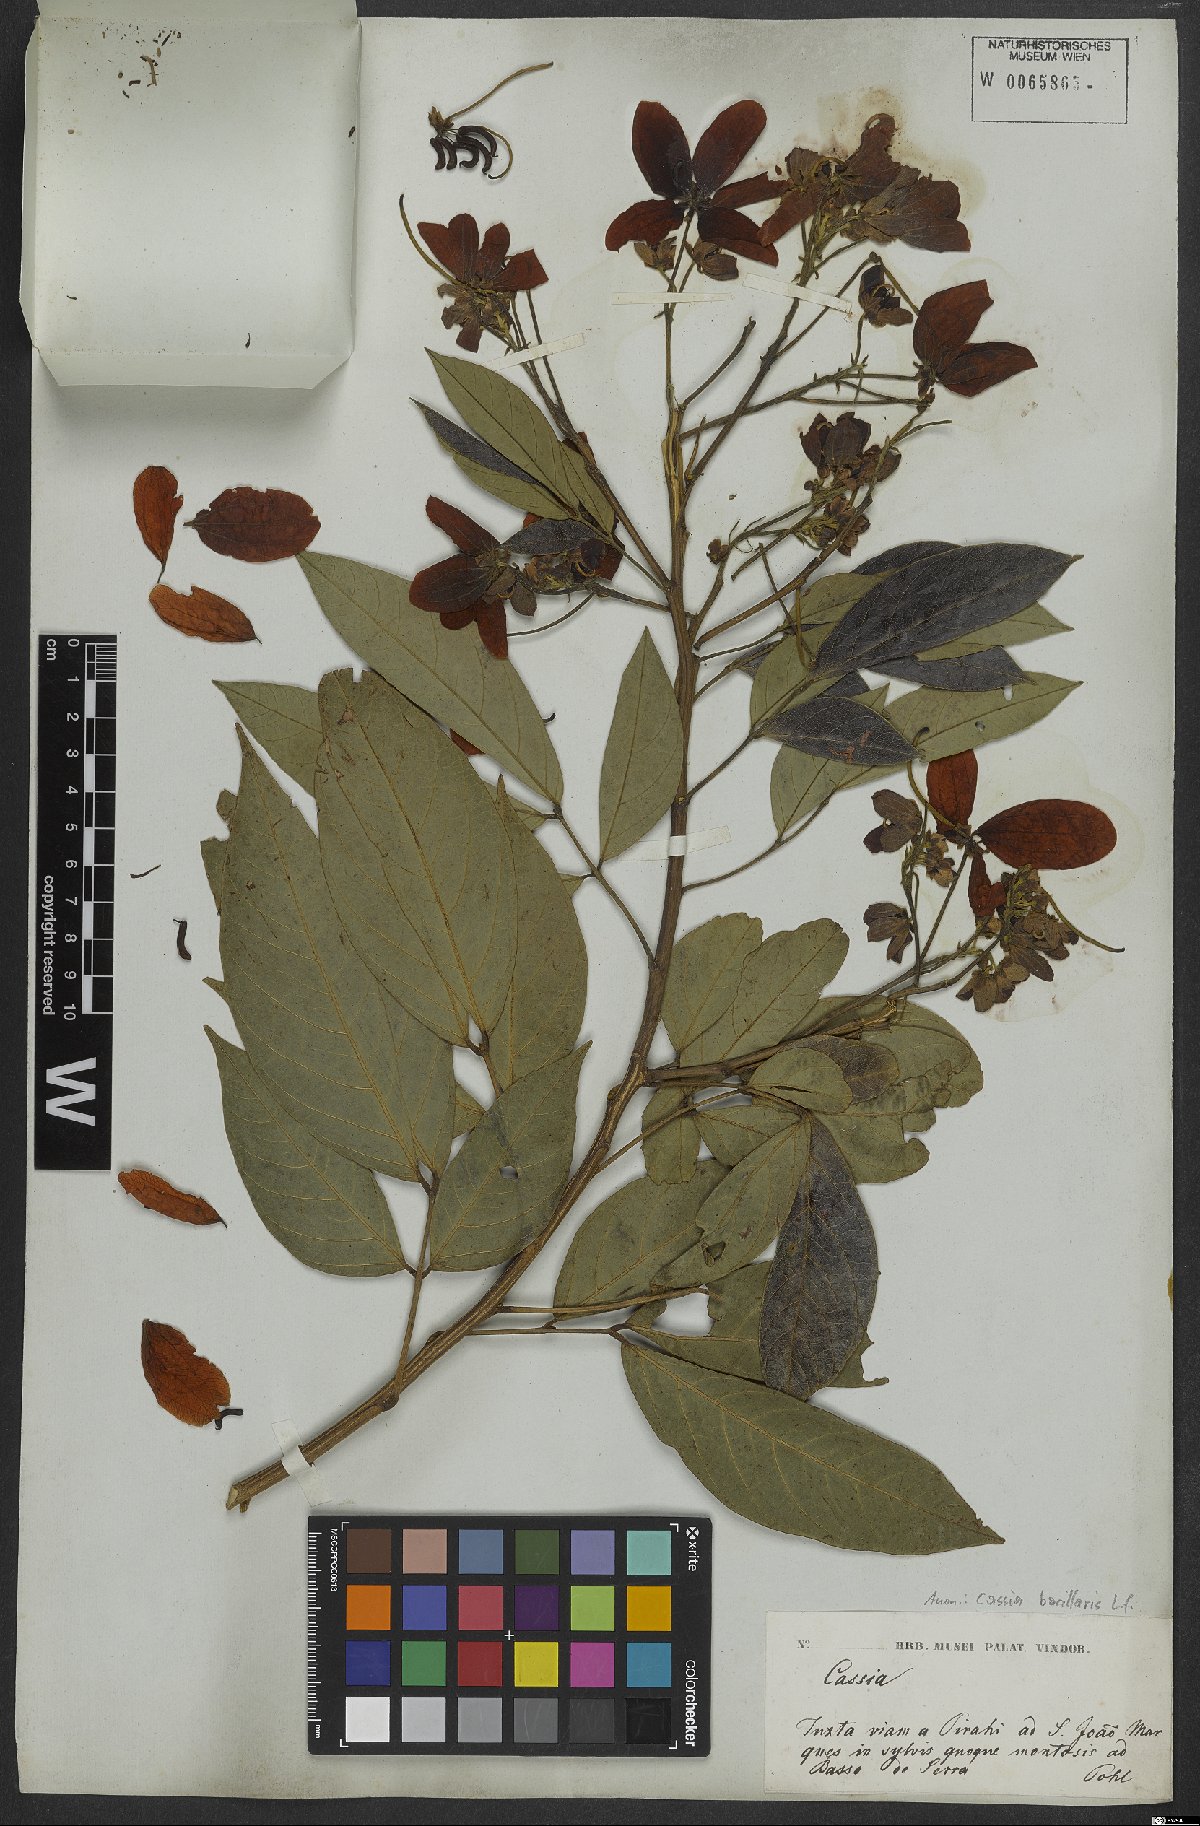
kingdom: Plantae
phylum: Tracheophyta
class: Magnoliopsida
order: Fabales
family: Fabaceae
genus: Senna
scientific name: Senna bacillaris
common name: West indian showertree
